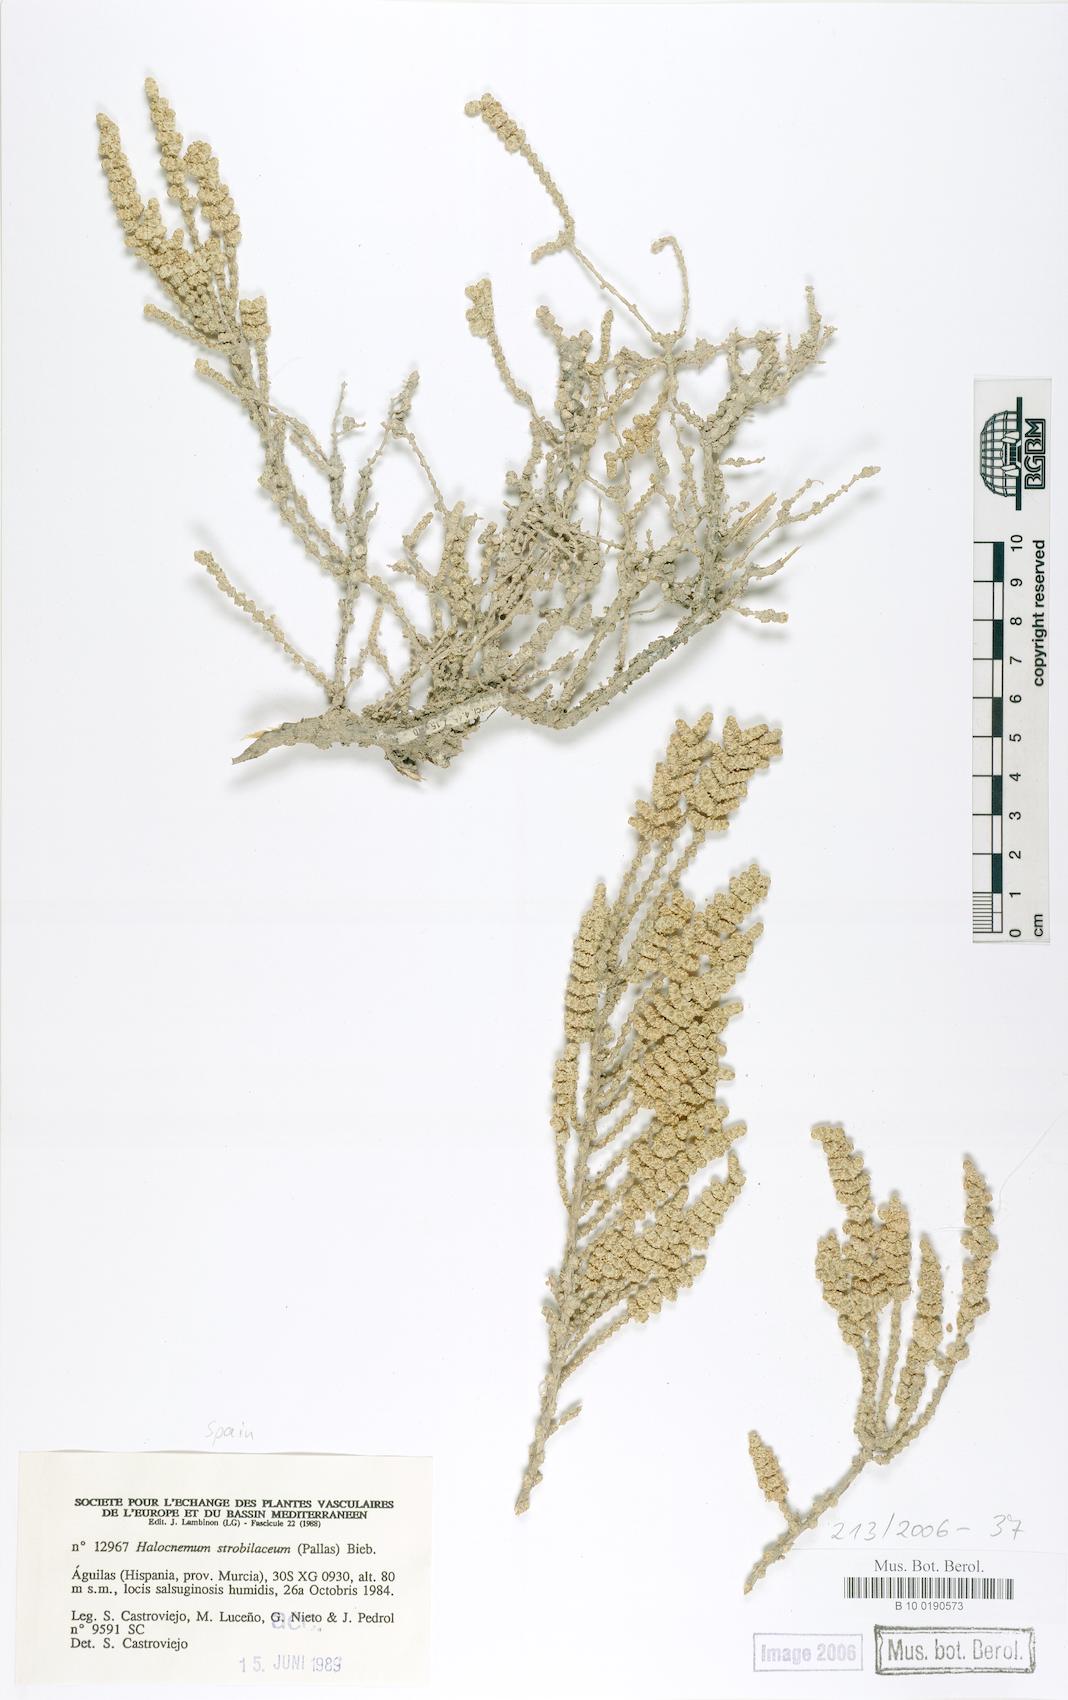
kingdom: Plantae
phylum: Tracheophyta
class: Magnoliopsida
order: Caryophyllales
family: Amaranthaceae
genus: Halocnemum
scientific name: Halocnemum strobilaceum
